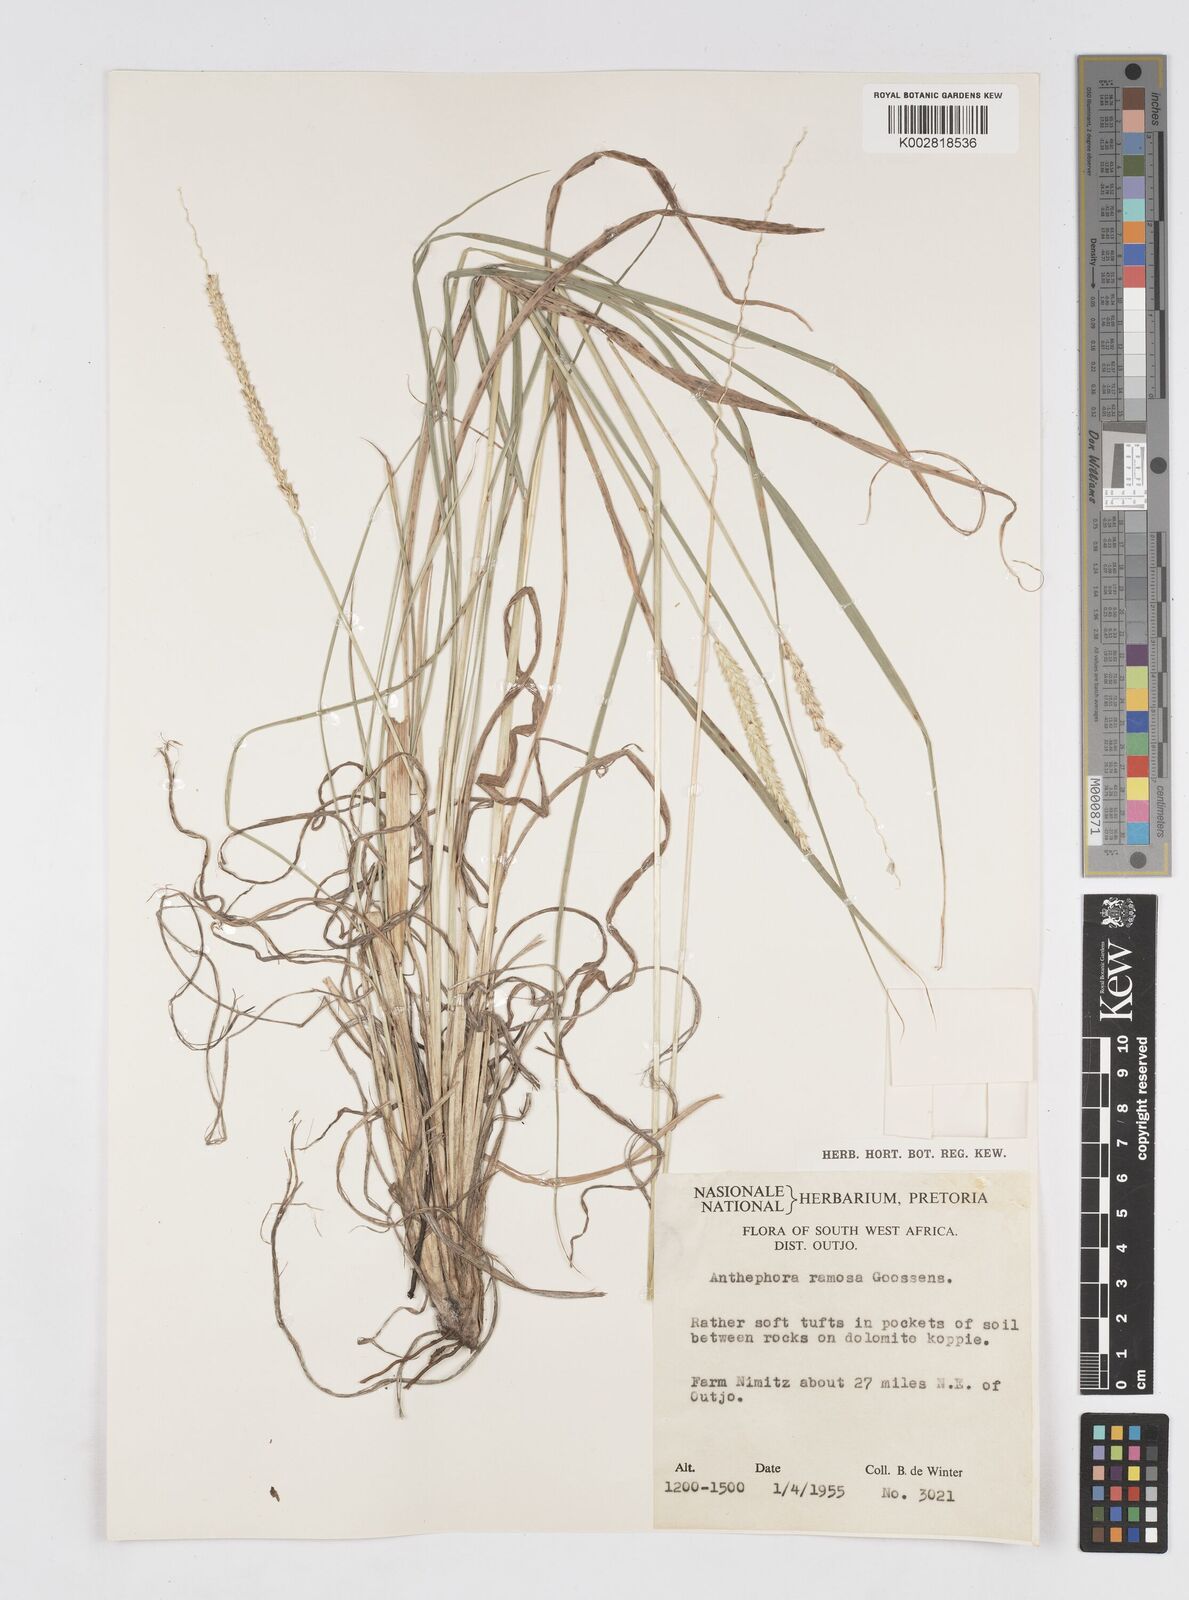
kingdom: Plantae
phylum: Tracheophyta
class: Liliopsida
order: Poales
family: Poaceae
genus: Anthephora
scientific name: Anthephora pubescens
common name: Wool grass
